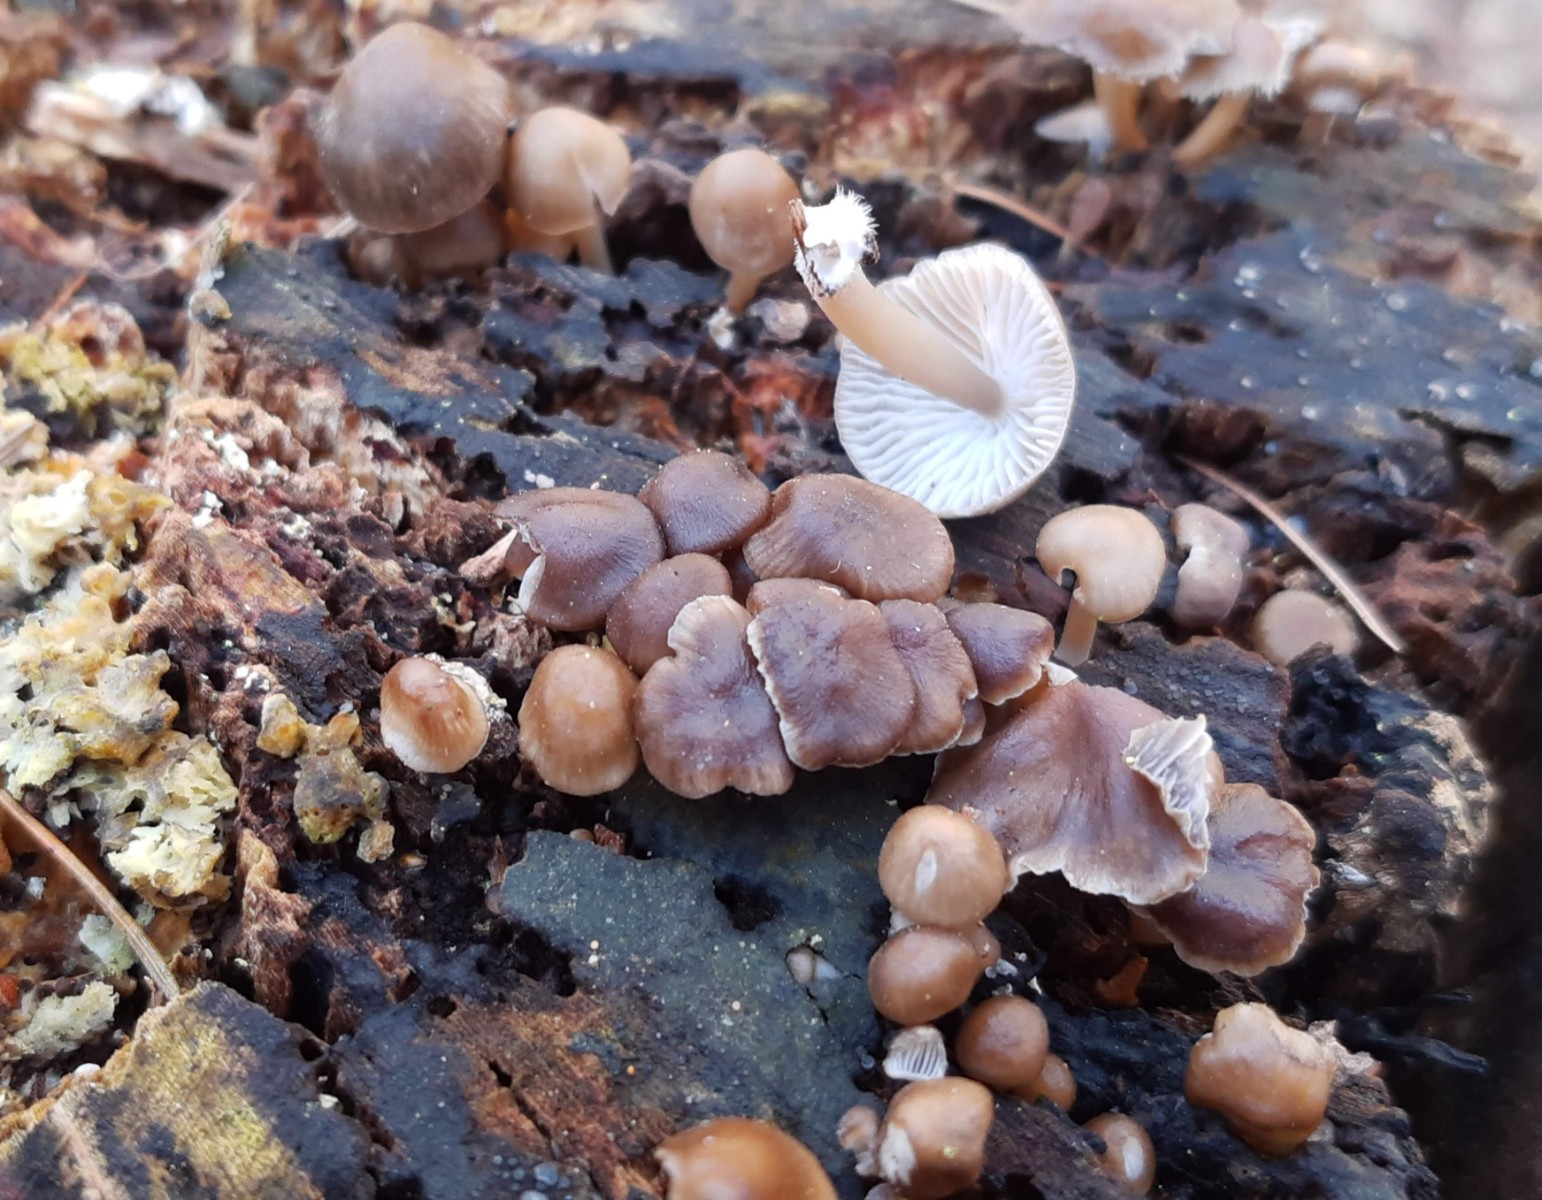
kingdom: Fungi
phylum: Basidiomycota
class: Agaricomycetes
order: Agaricales
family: Mycenaceae
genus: Mycena
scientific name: Mycena tintinnabulum
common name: vinter-huesvamp
